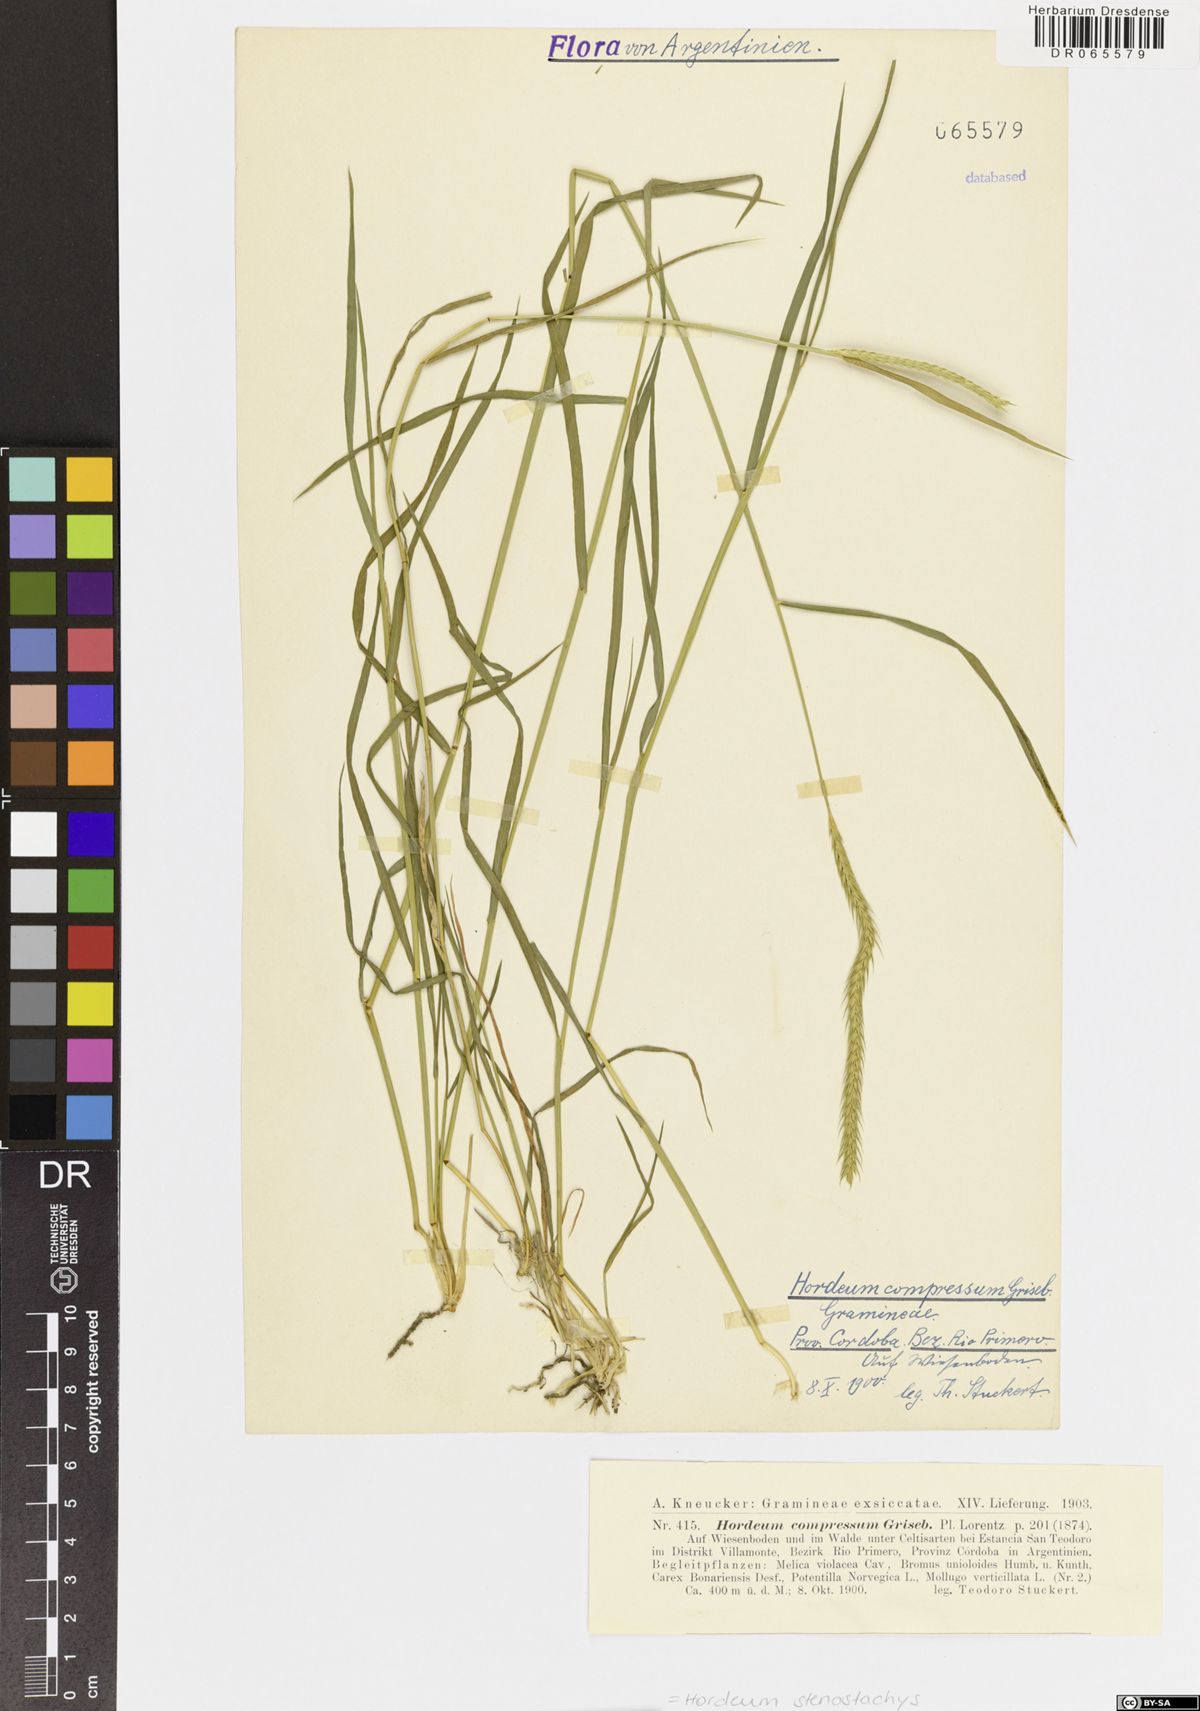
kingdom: Plantae
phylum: Tracheophyta
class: Liliopsida
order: Poales
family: Poaceae
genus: Hordeum
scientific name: Hordeum stenostachys
